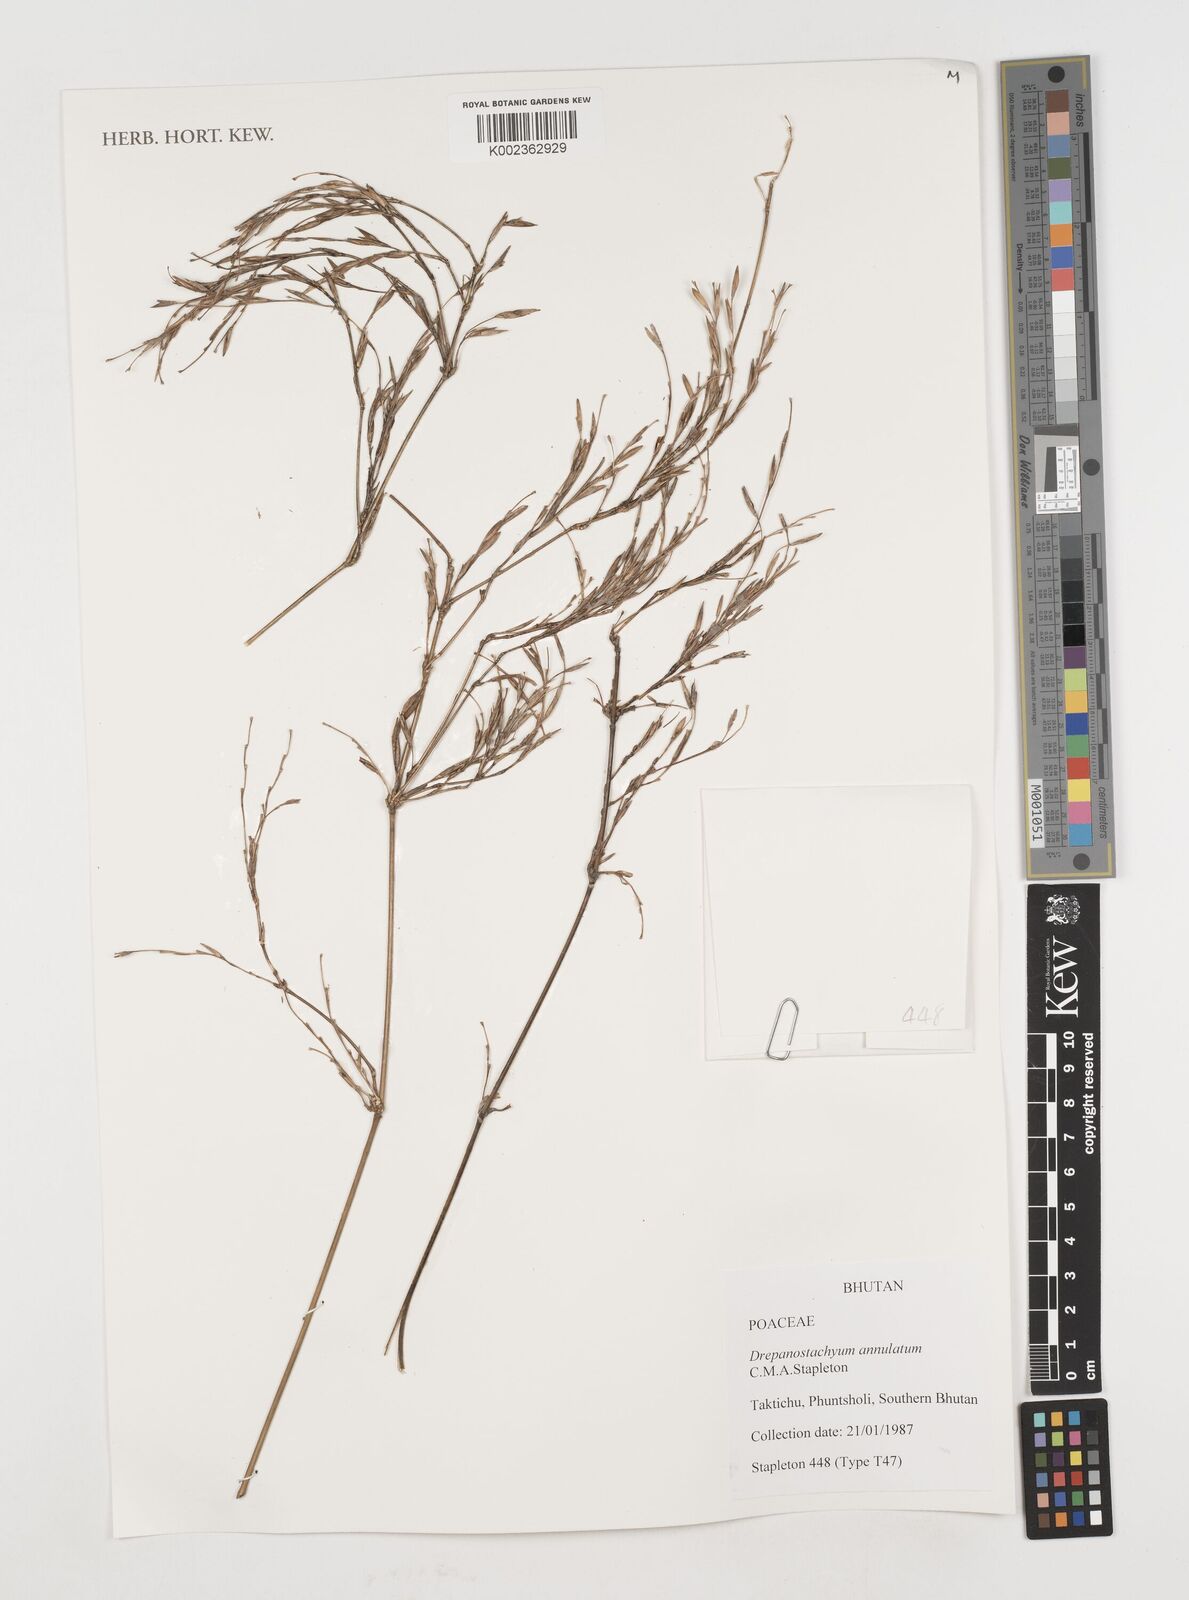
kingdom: Plantae
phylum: Tracheophyta
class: Liliopsida
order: Poales
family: Poaceae
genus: Drepanostachyum
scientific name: Drepanostachyum annulatum
